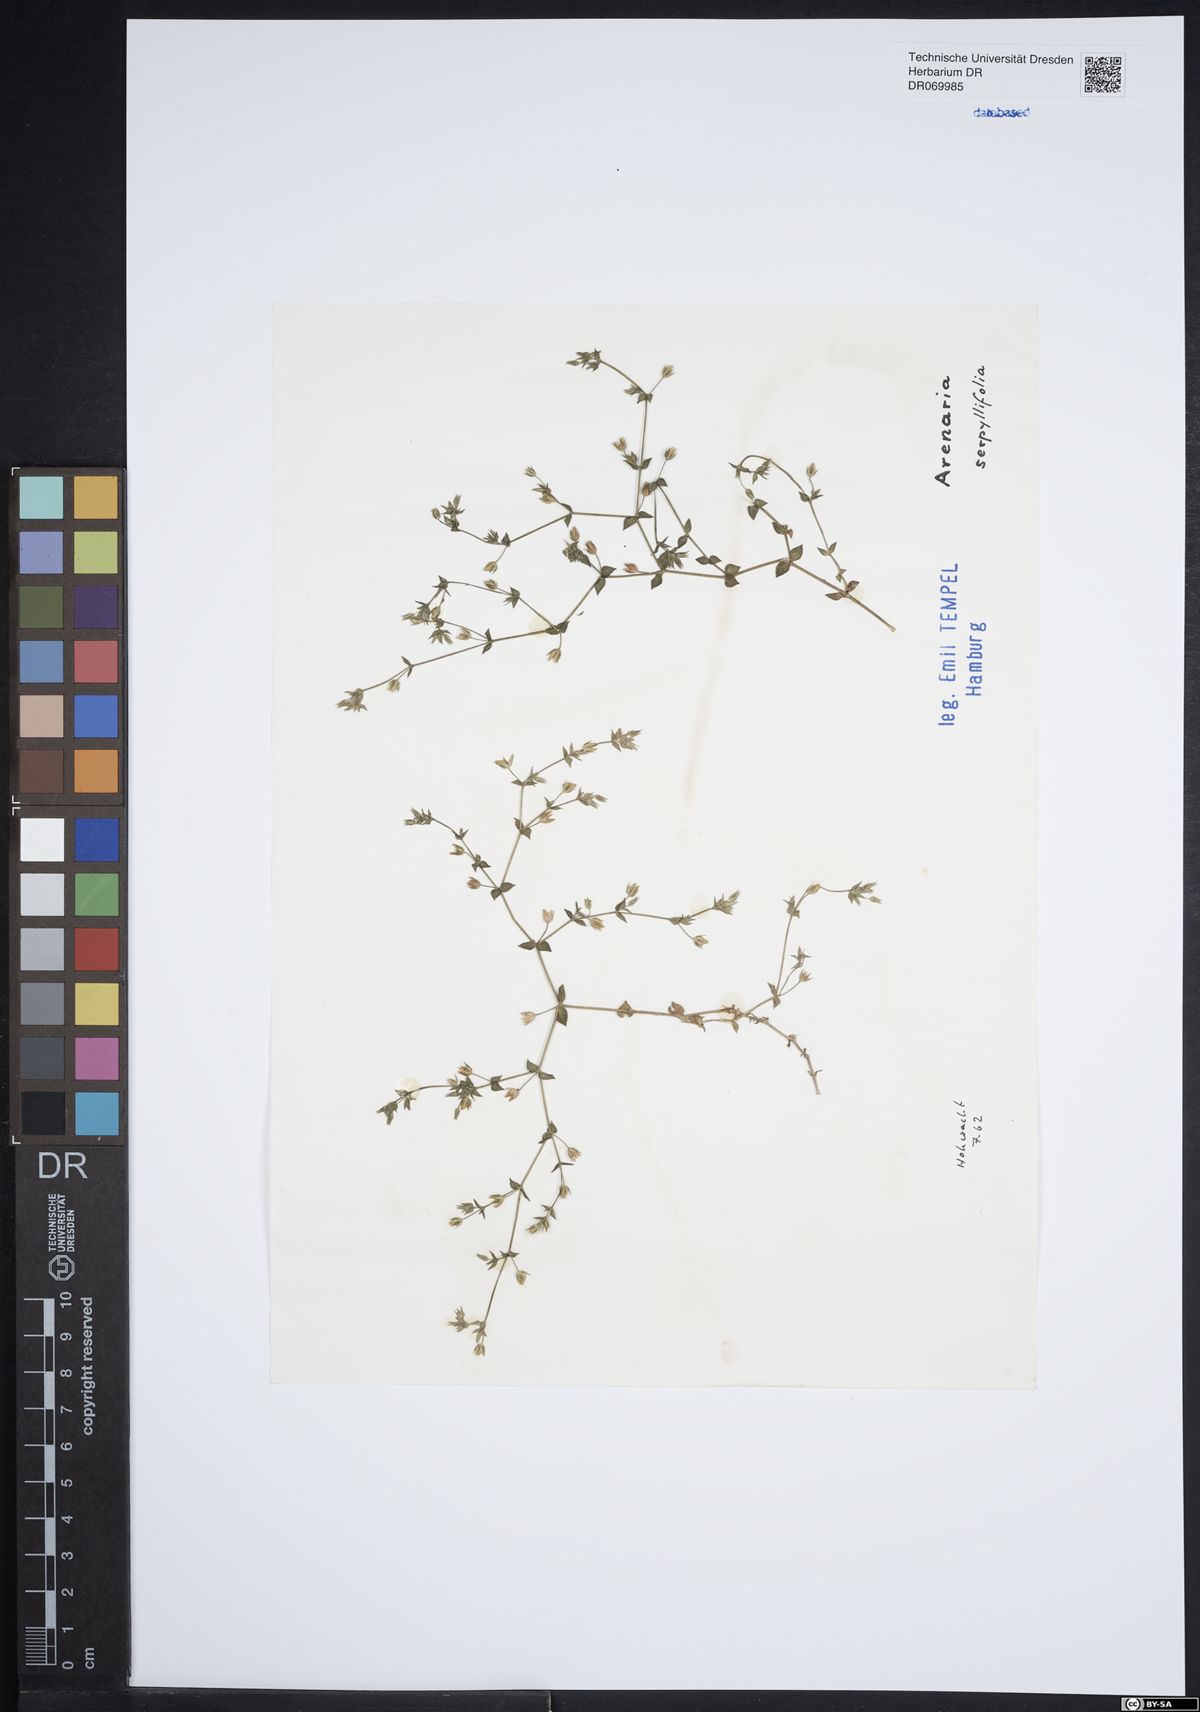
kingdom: Plantae
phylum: Tracheophyta
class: Magnoliopsida
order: Caryophyllales
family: Caryophyllaceae
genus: Arenaria
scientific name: Arenaria serpyllifolia
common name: Thyme-leaved sandwort
